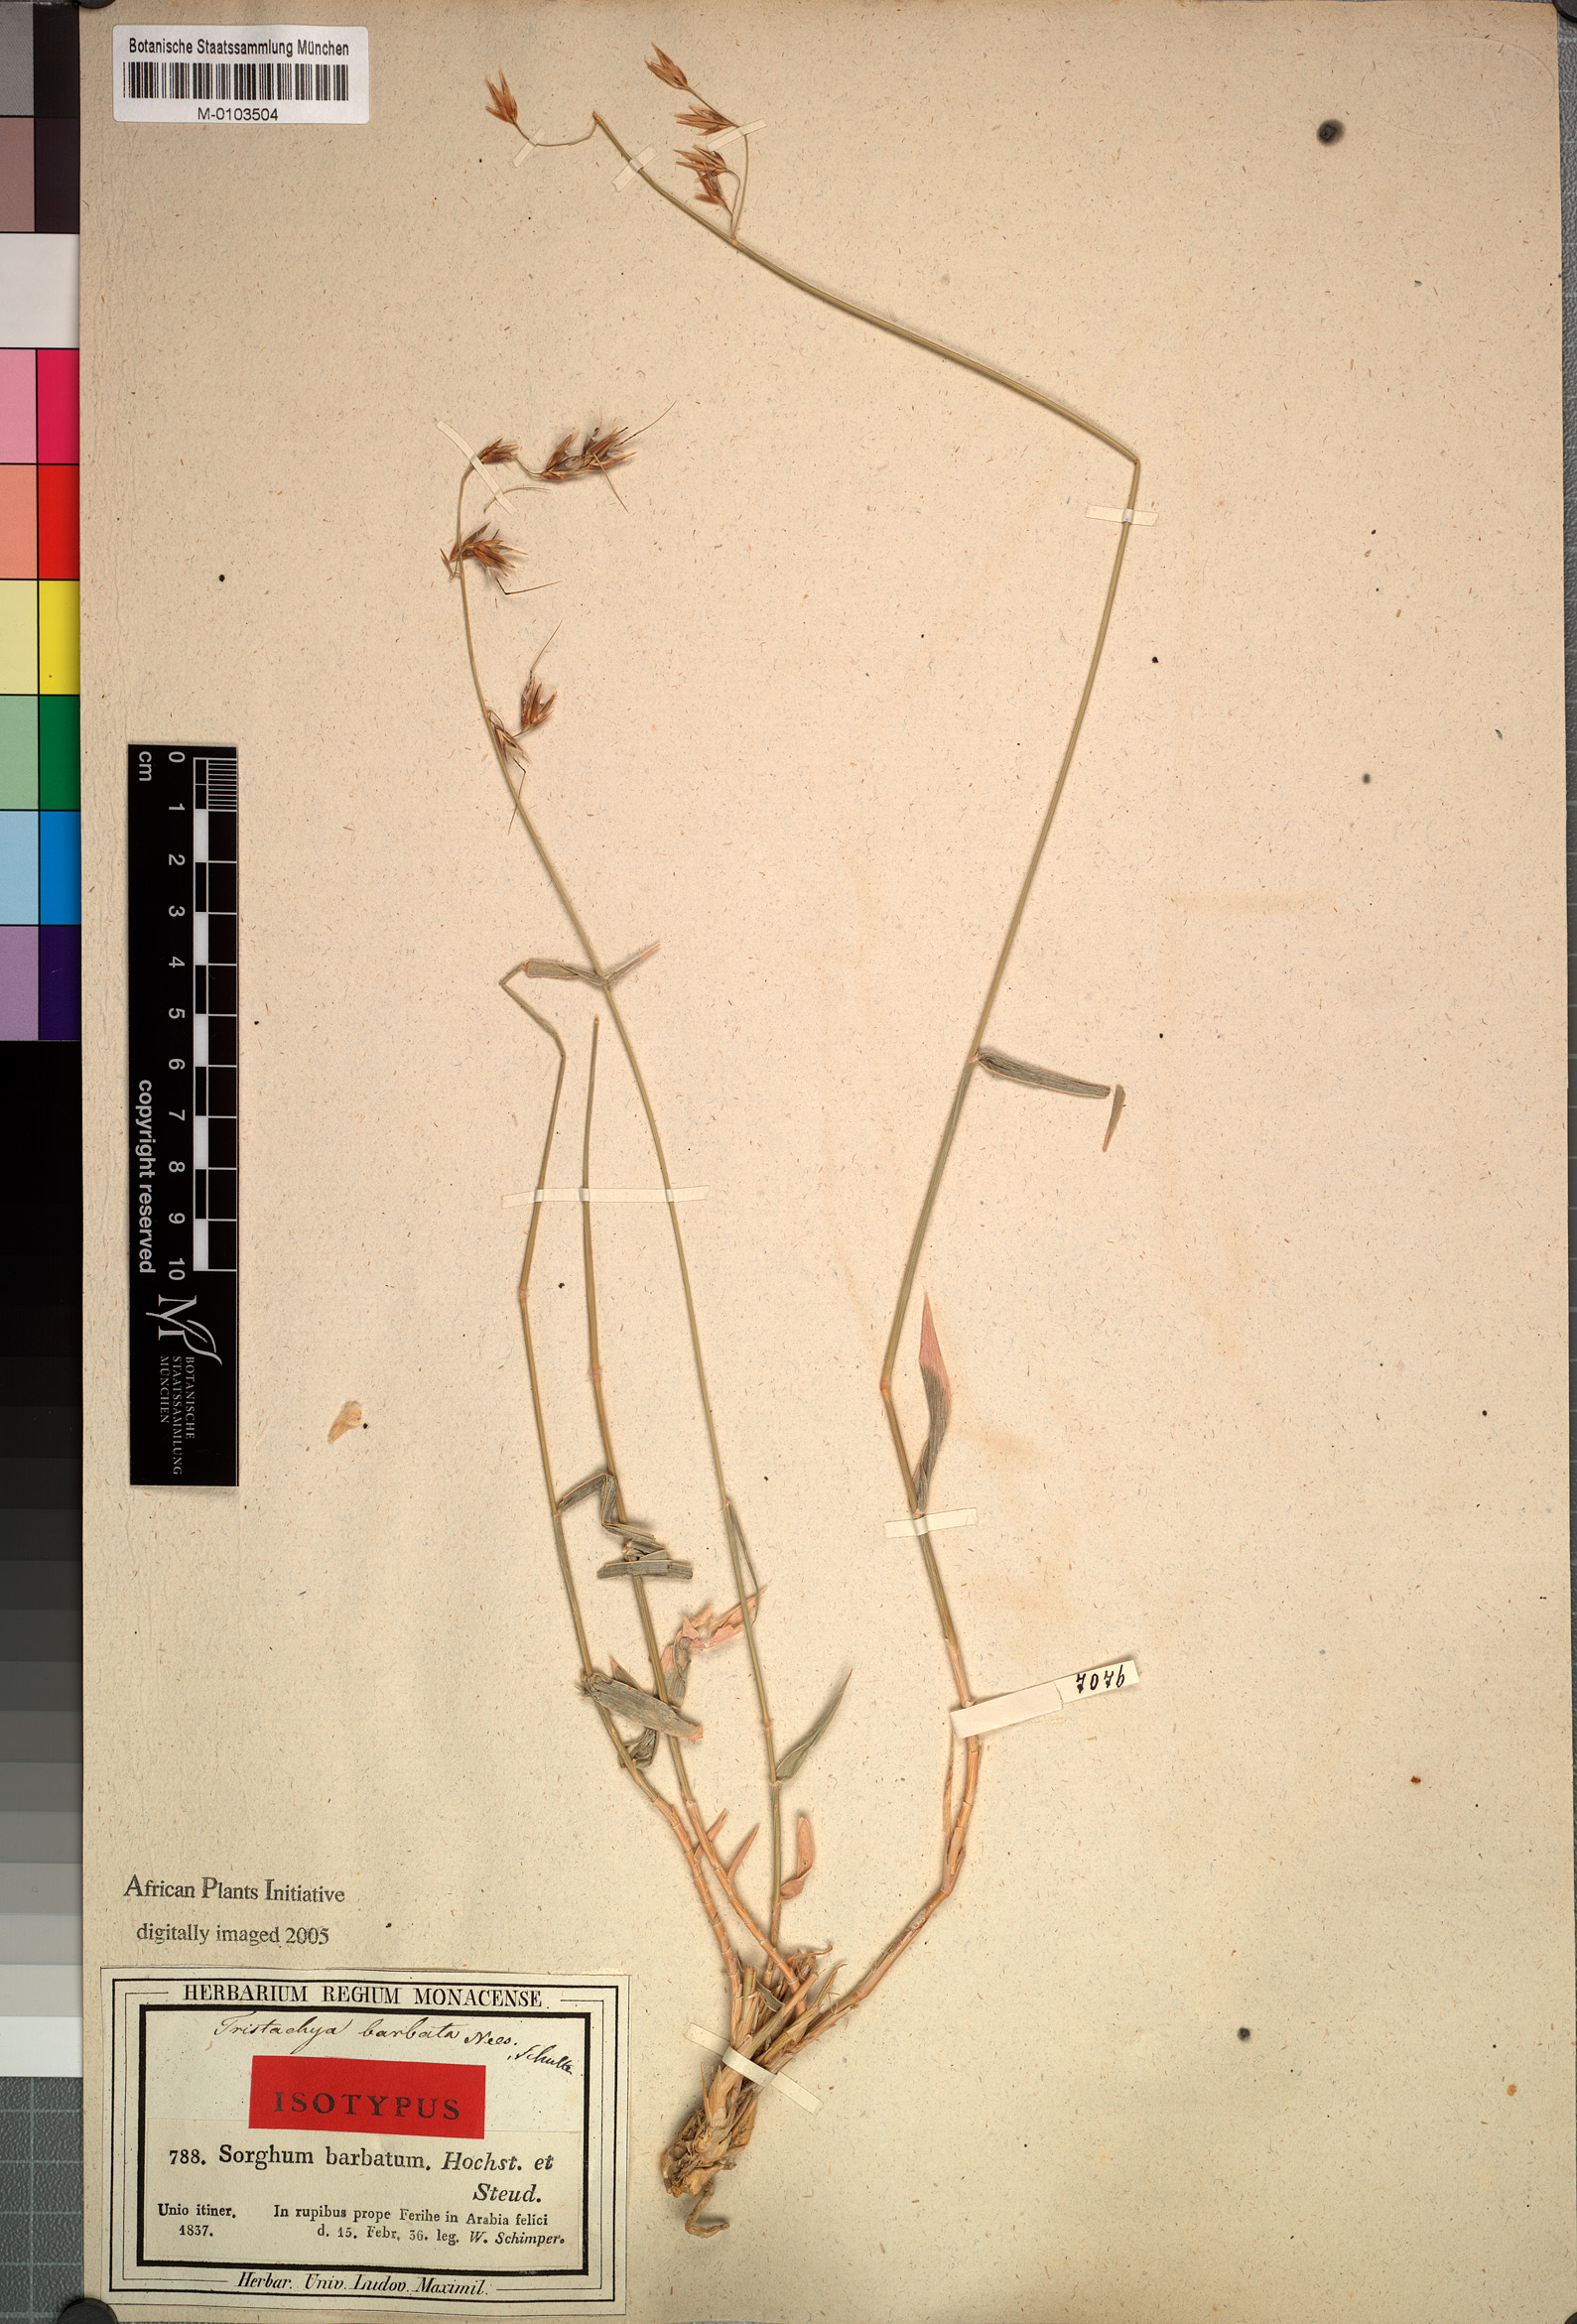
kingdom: Plantae
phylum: Tracheophyta
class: Liliopsida
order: Poales
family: Poaceae
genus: Danthoniopsis
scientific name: Danthoniopsis barbata
